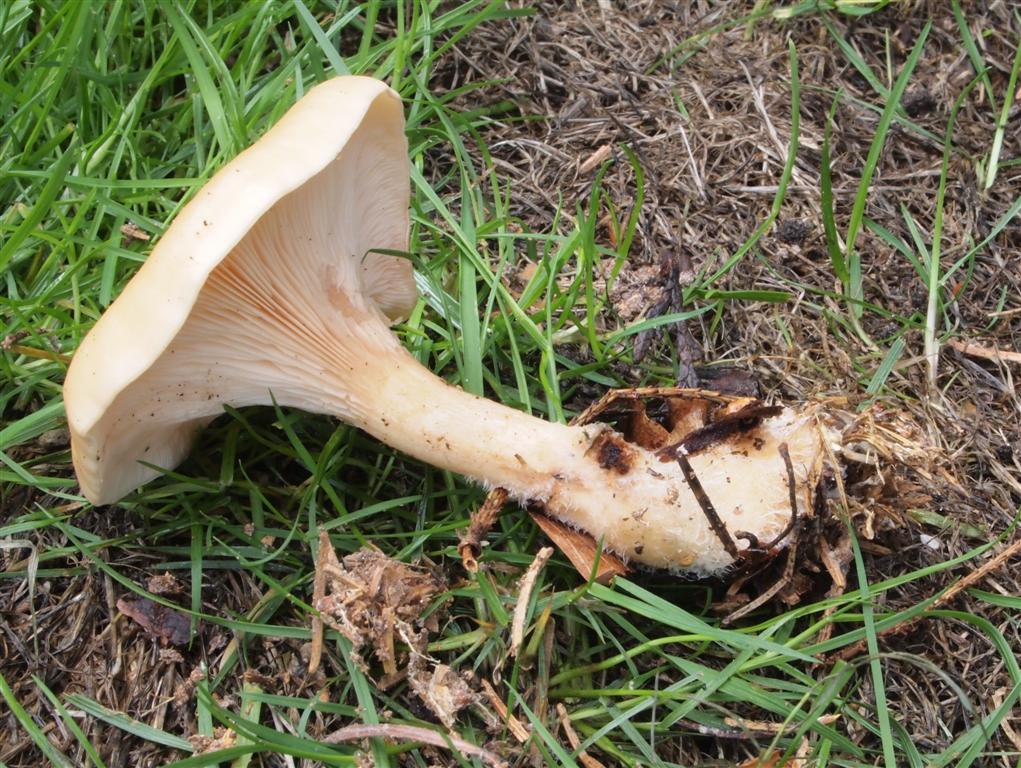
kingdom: Fungi
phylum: Basidiomycota
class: Agaricomycetes
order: Agaricales
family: Tricholomataceae
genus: Paralepista
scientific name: Paralepista flaccida
